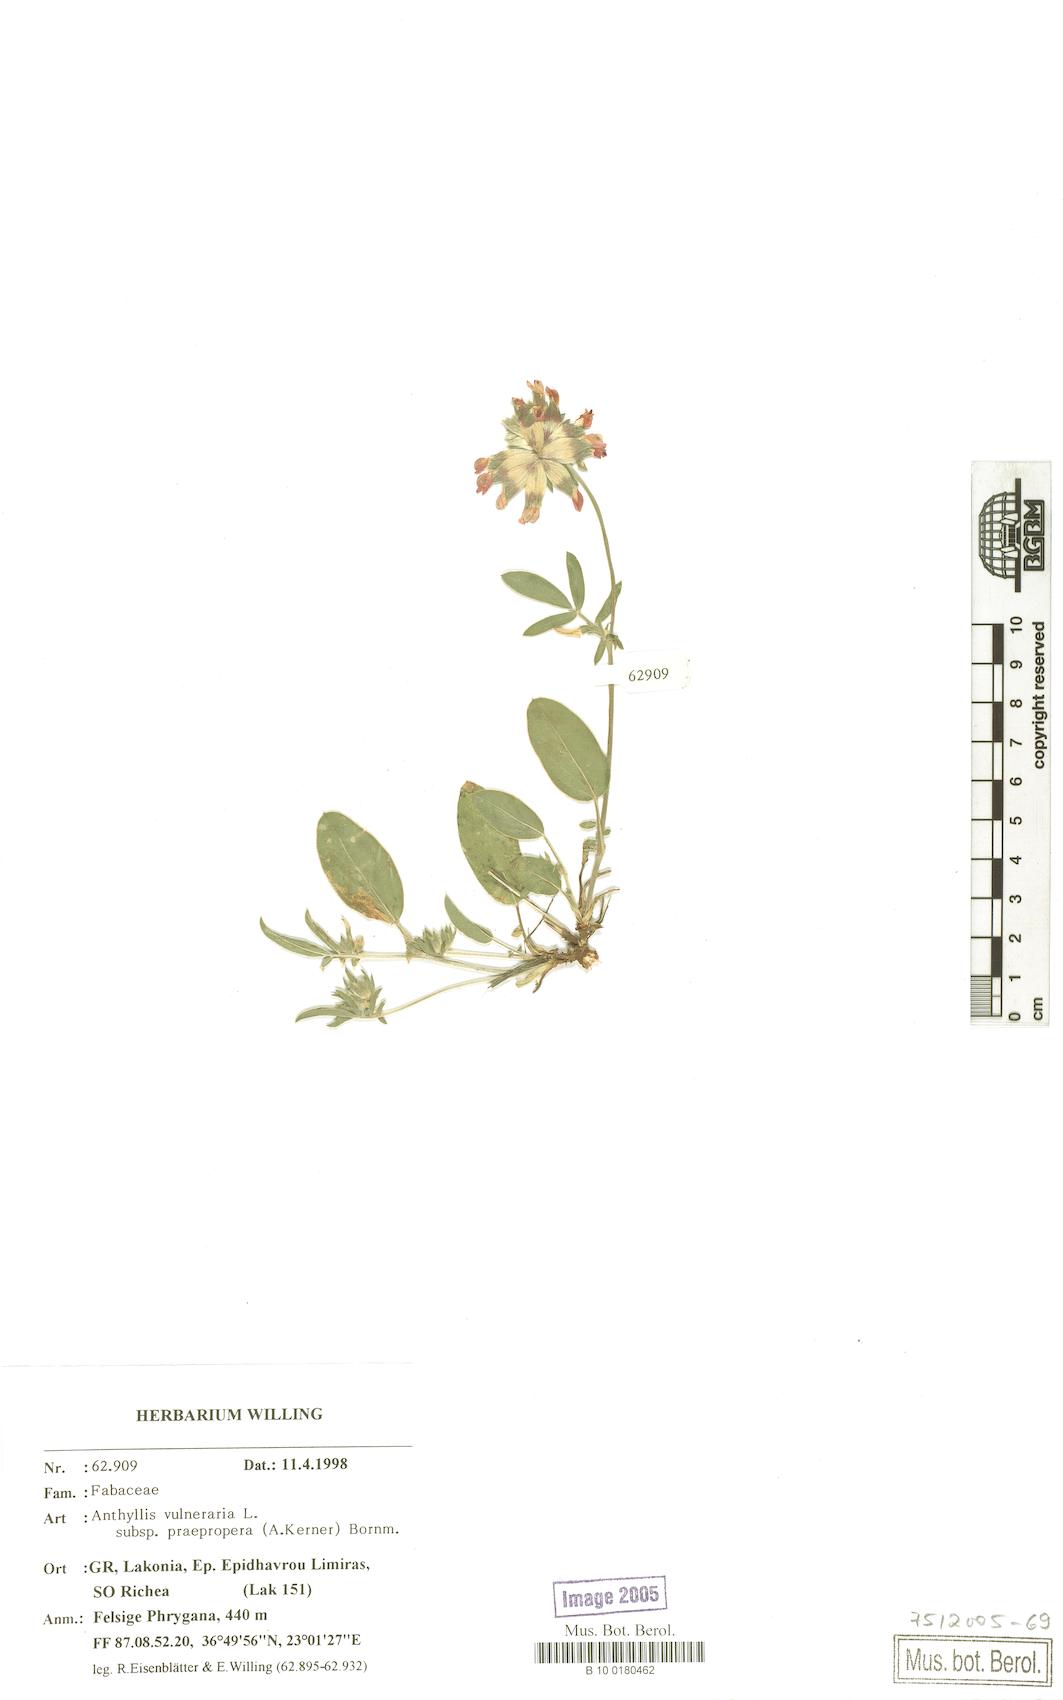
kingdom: Plantae
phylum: Tracheophyta
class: Magnoliopsida
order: Fabales
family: Fabaceae
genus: Anthyllis
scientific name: Anthyllis vulneraria
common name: Kidney vetch
